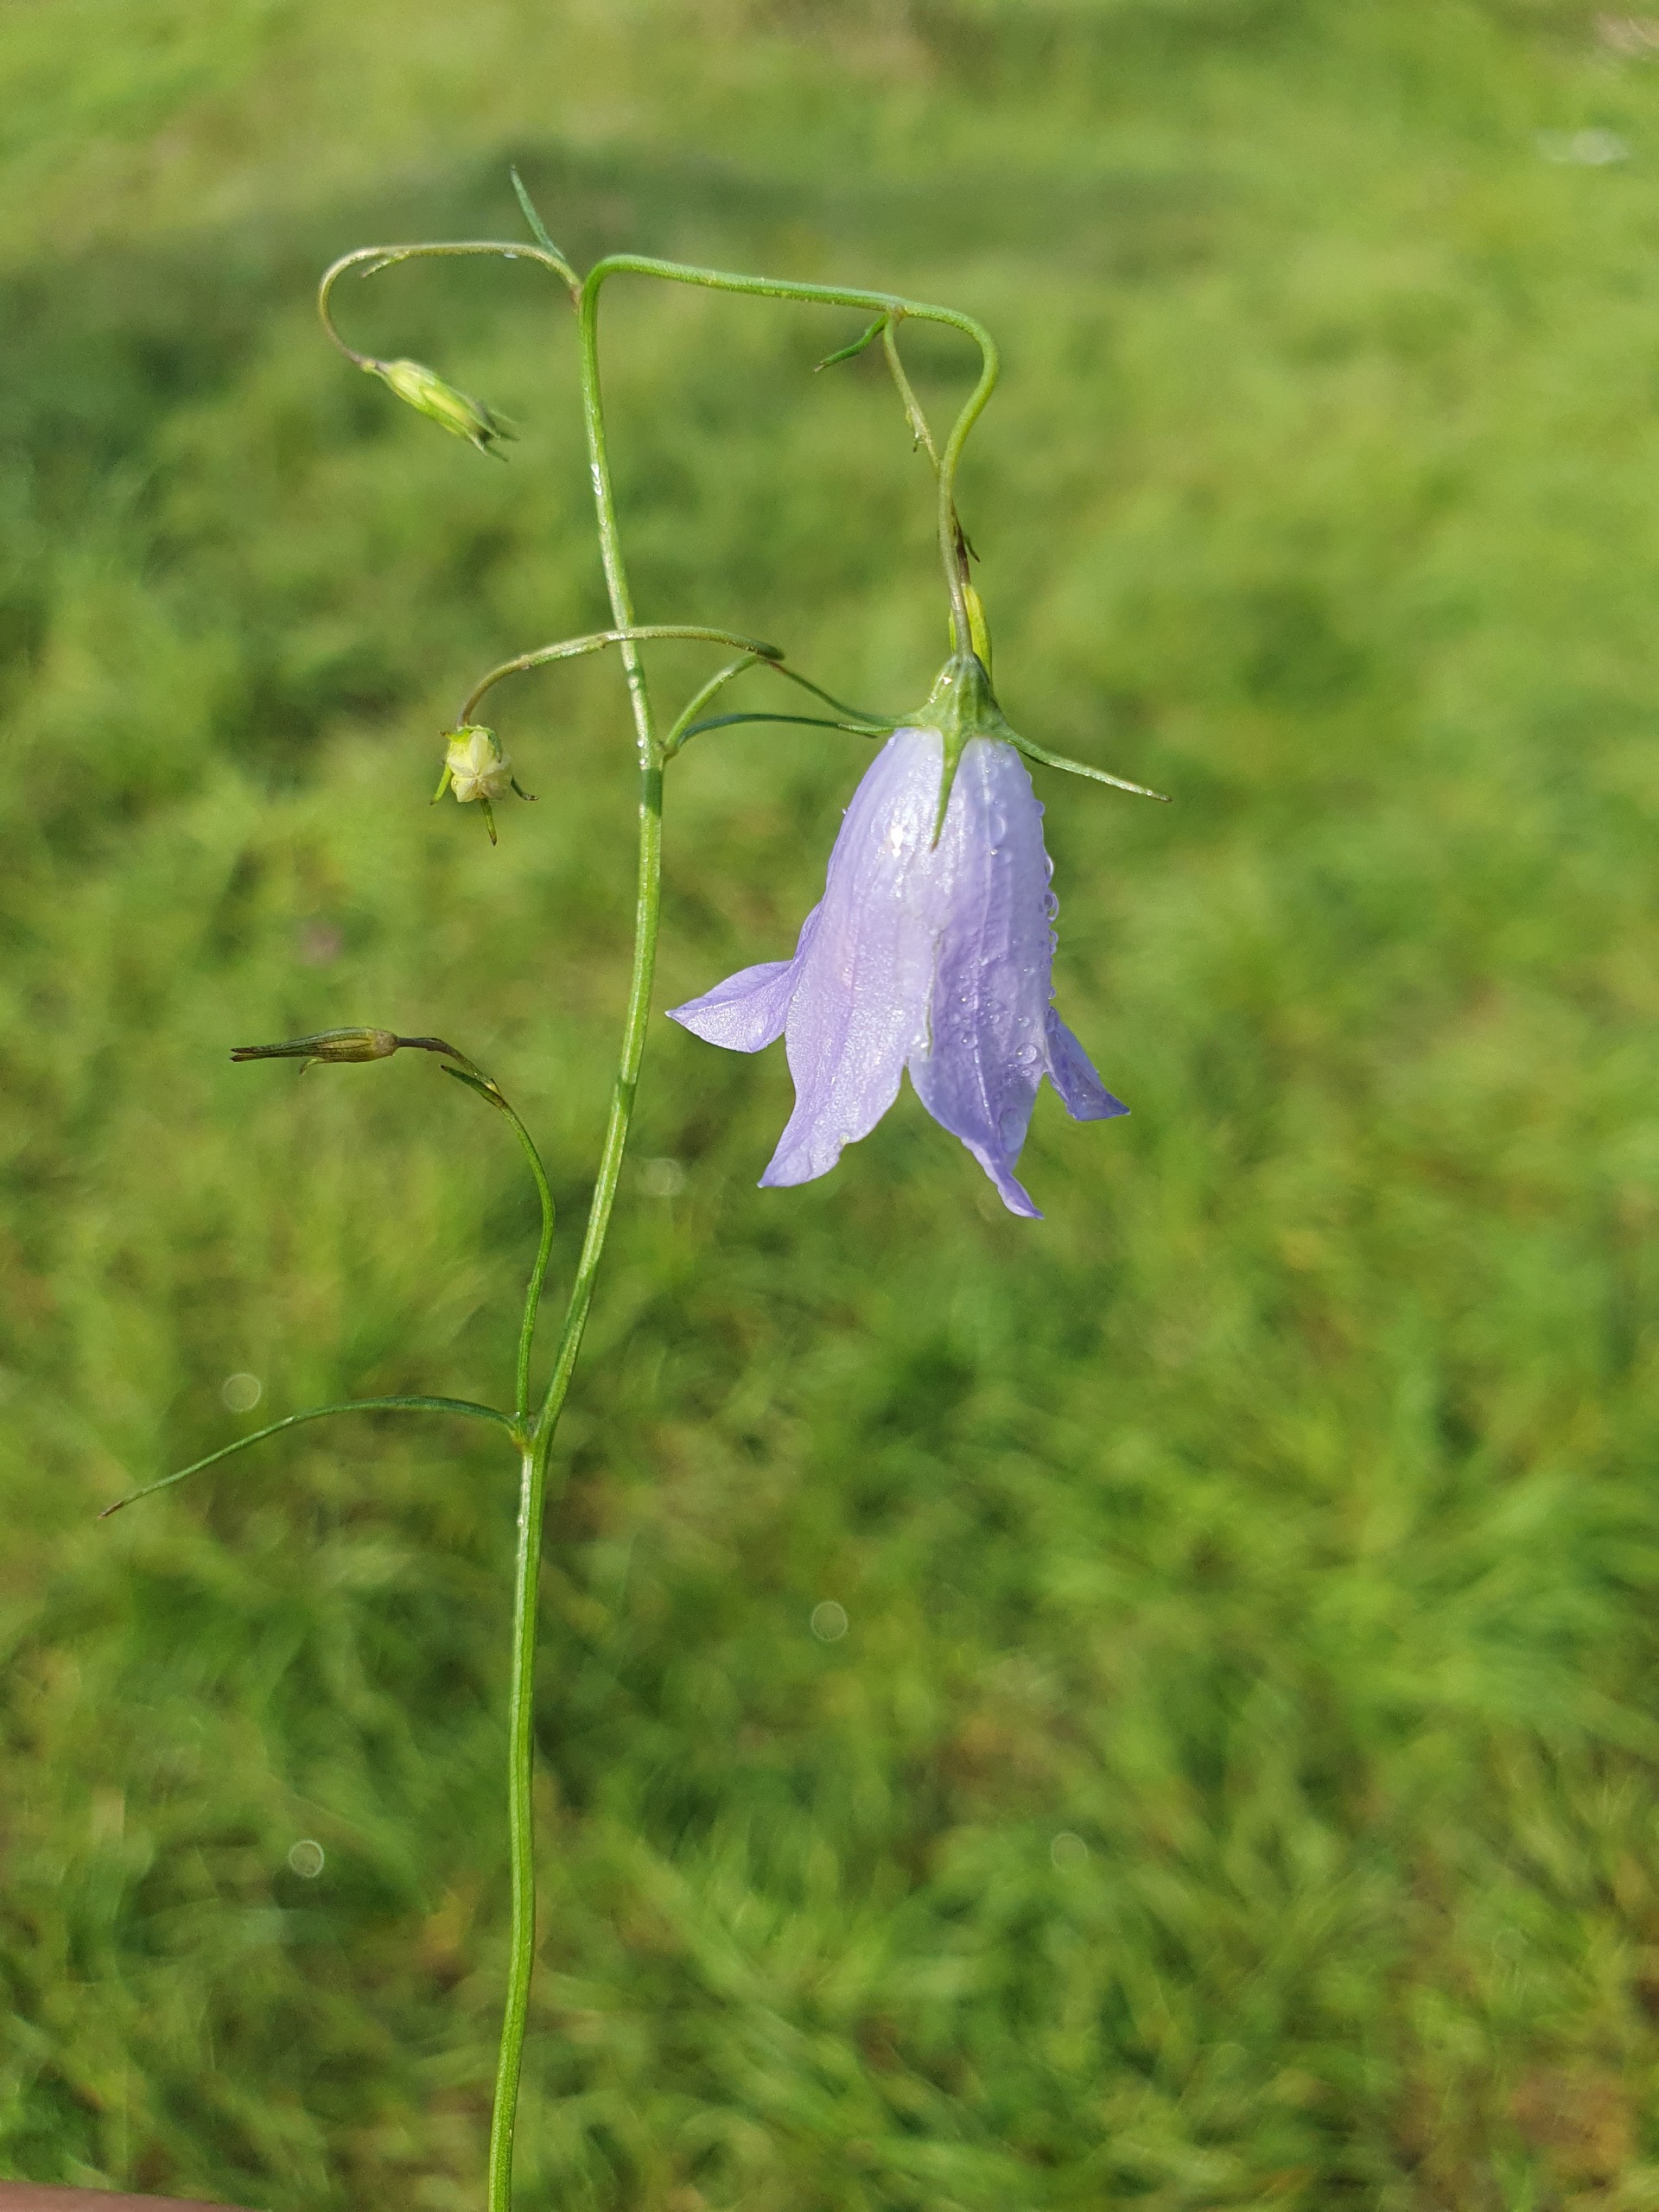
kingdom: Plantae
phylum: Tracheophyta
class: Magnoliopsida
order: Asterales
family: Campanulaceae
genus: Campanula
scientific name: Campanula rotundifolia
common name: Liden klokke
